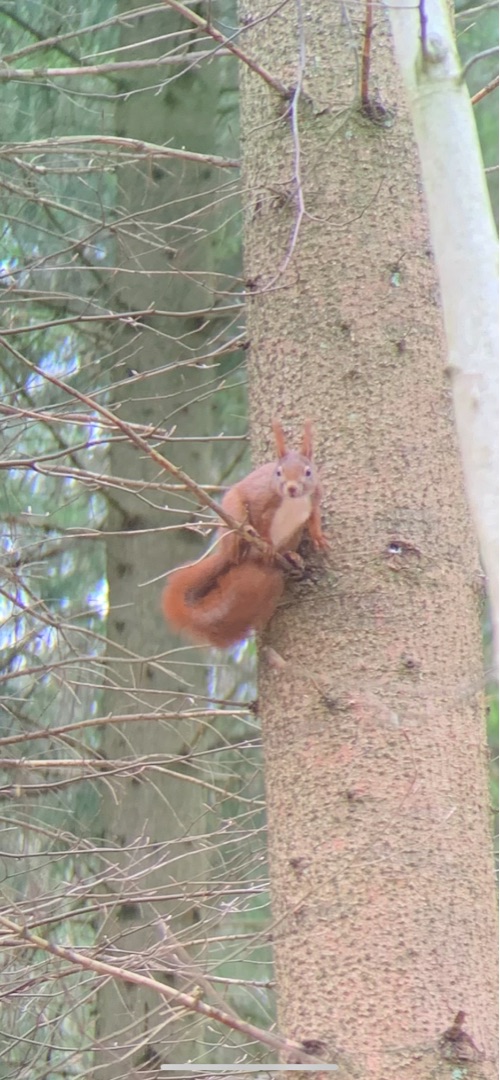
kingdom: Animalia
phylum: Chordata
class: Mammalia
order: Rodentia
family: Sciuridae
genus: Sciurus
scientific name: Sciurus vulgaris
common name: Egern
